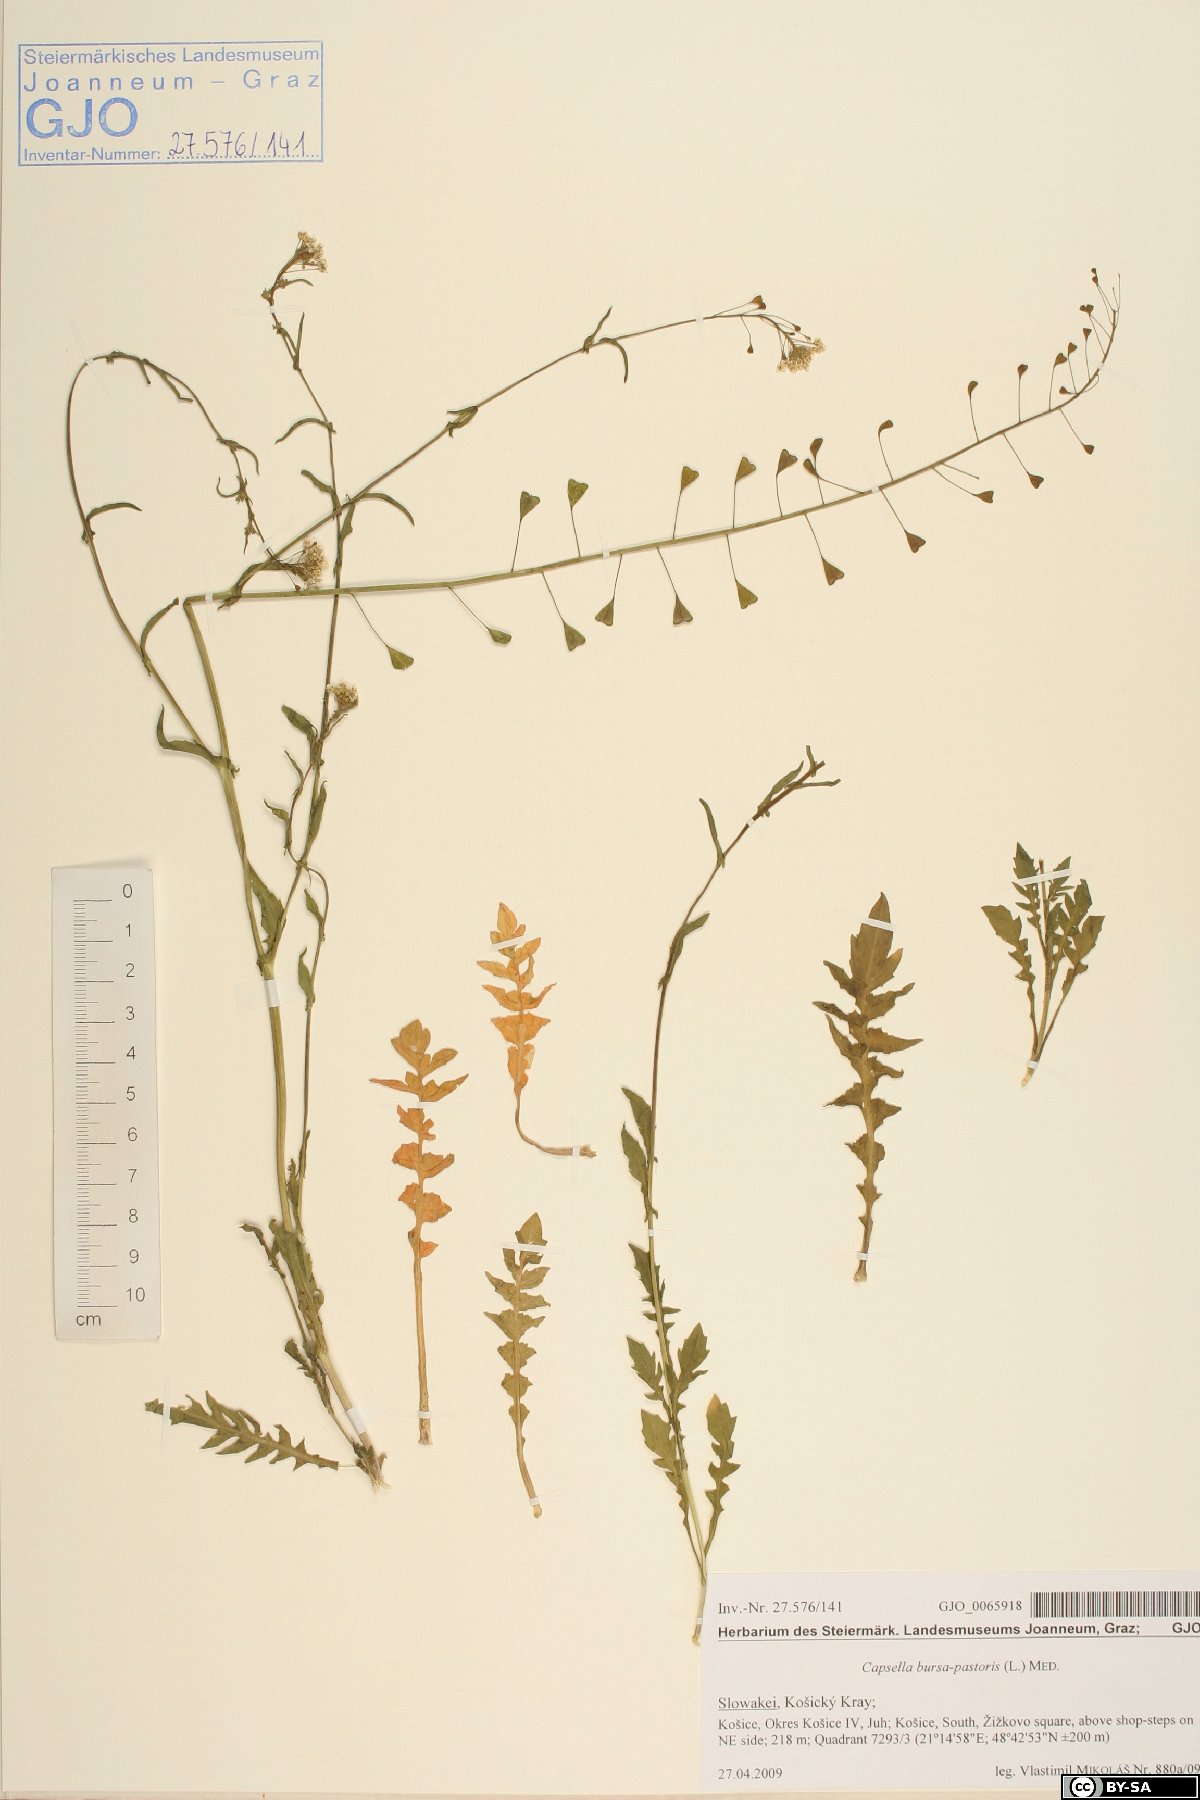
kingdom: Plantae
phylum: Tracheophyta
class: Magnoliopsida
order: Brassicales
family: Brassicaceae
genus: Capsella
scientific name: Capsella bursa-pastoris
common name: Shepherd's purse
